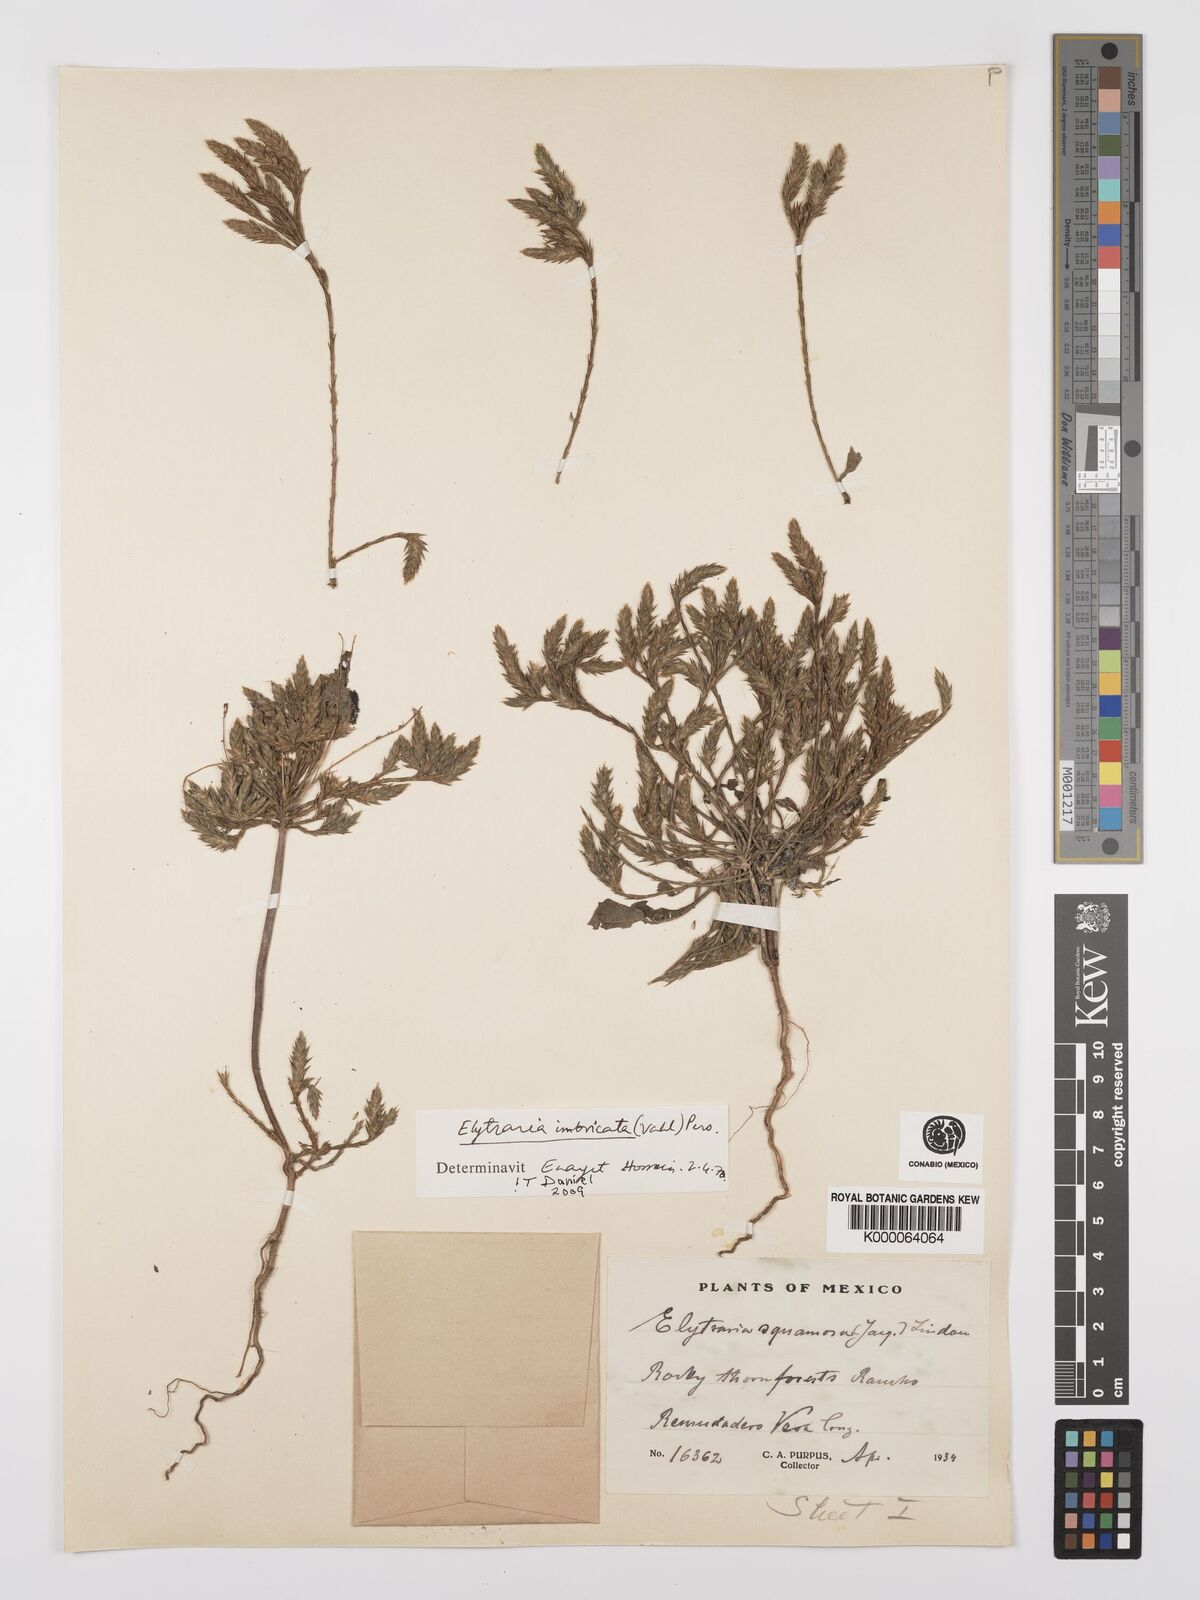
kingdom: Plantae
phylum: Tracheophyta
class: Magnoliopsida
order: Lamiales
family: Acanthaceae
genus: Elytraria
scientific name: Elytraria imbricata
